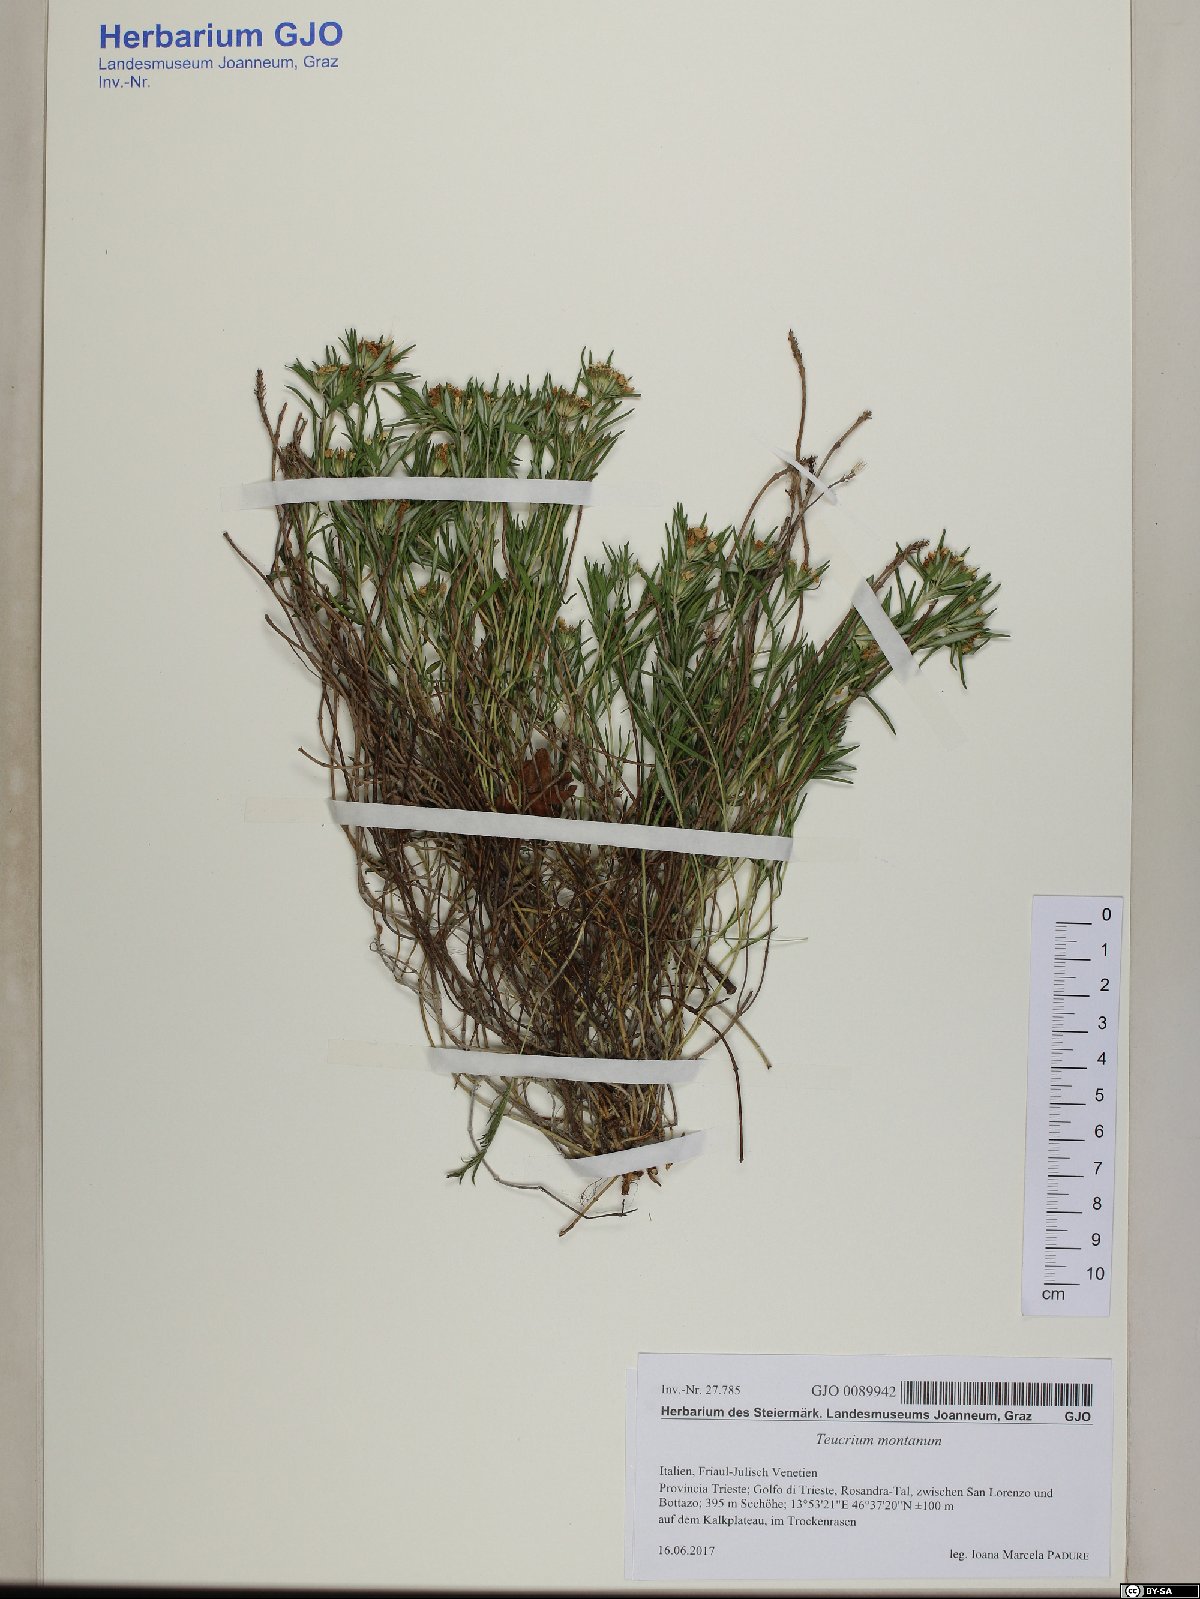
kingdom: Plantae
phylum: Tracheophyta
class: Magnoliopsida
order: Lamiales
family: Lamiaceae
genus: Teucrium
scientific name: Teucrium montanum
